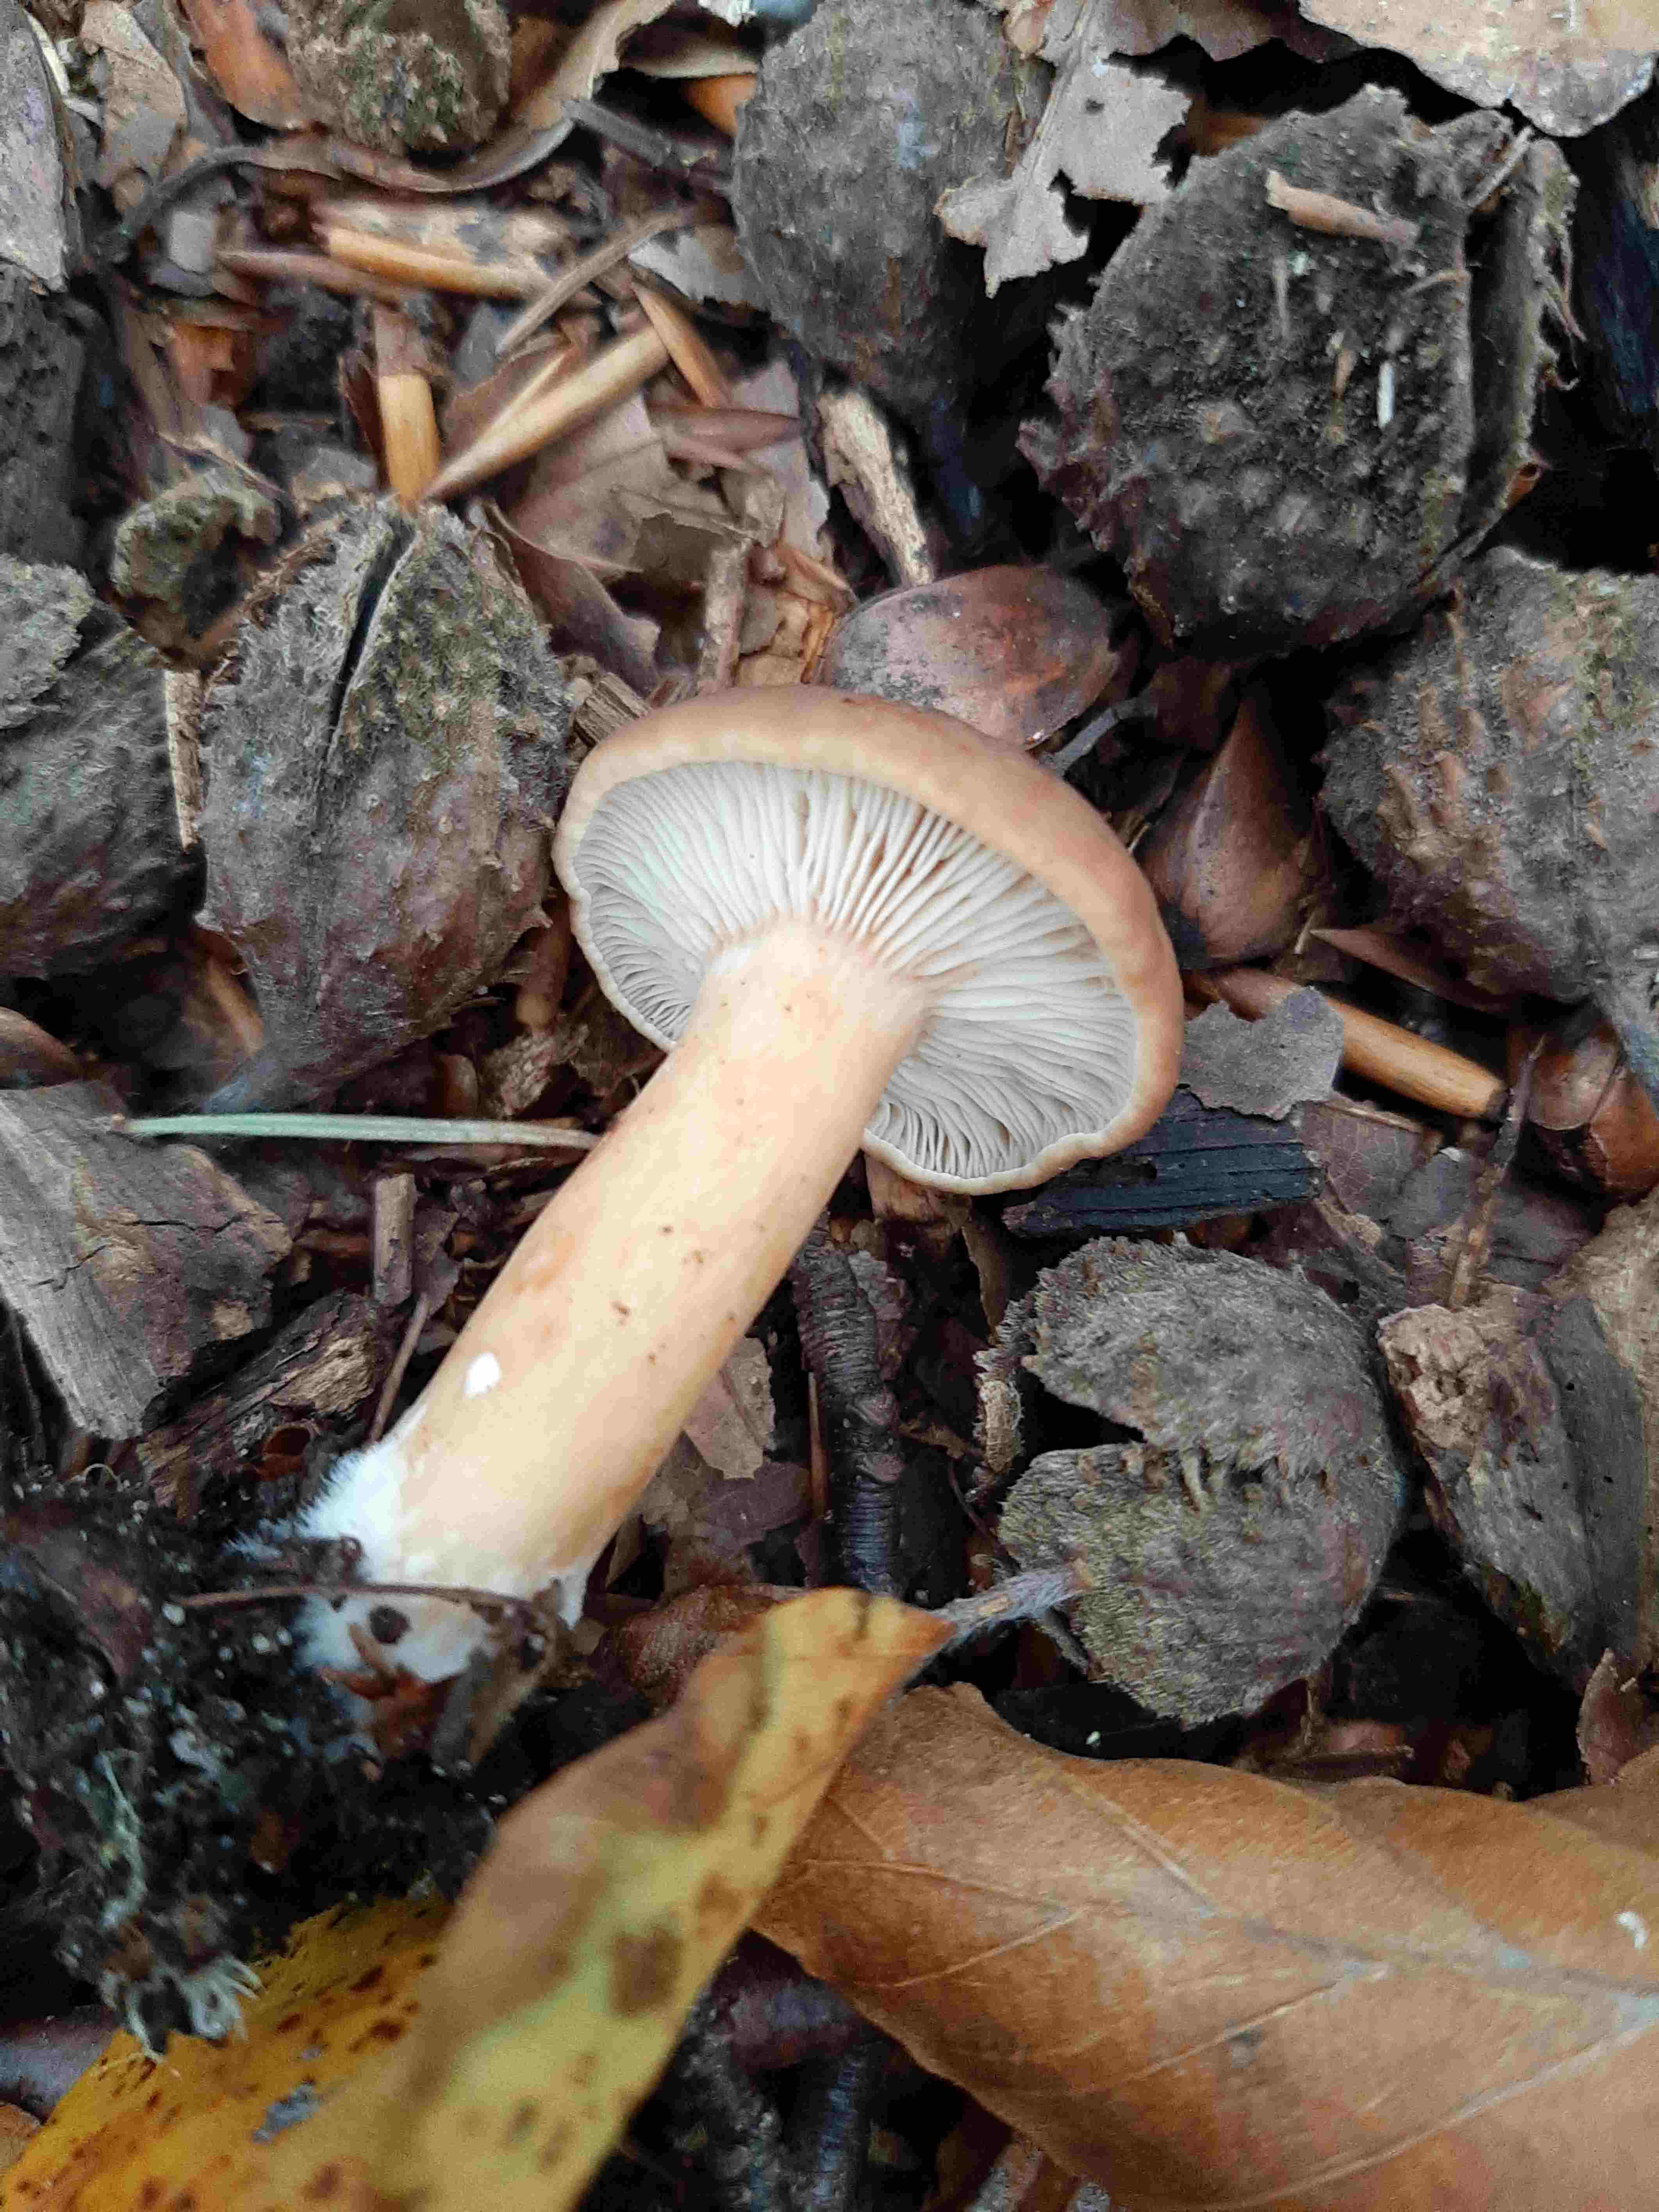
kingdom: Fungi
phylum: Basidiomycota
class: Agaricomycetes
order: Russulales
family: Russulaceae
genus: Lactarius
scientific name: Lactarius tabidus
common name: rynket mælkehat
